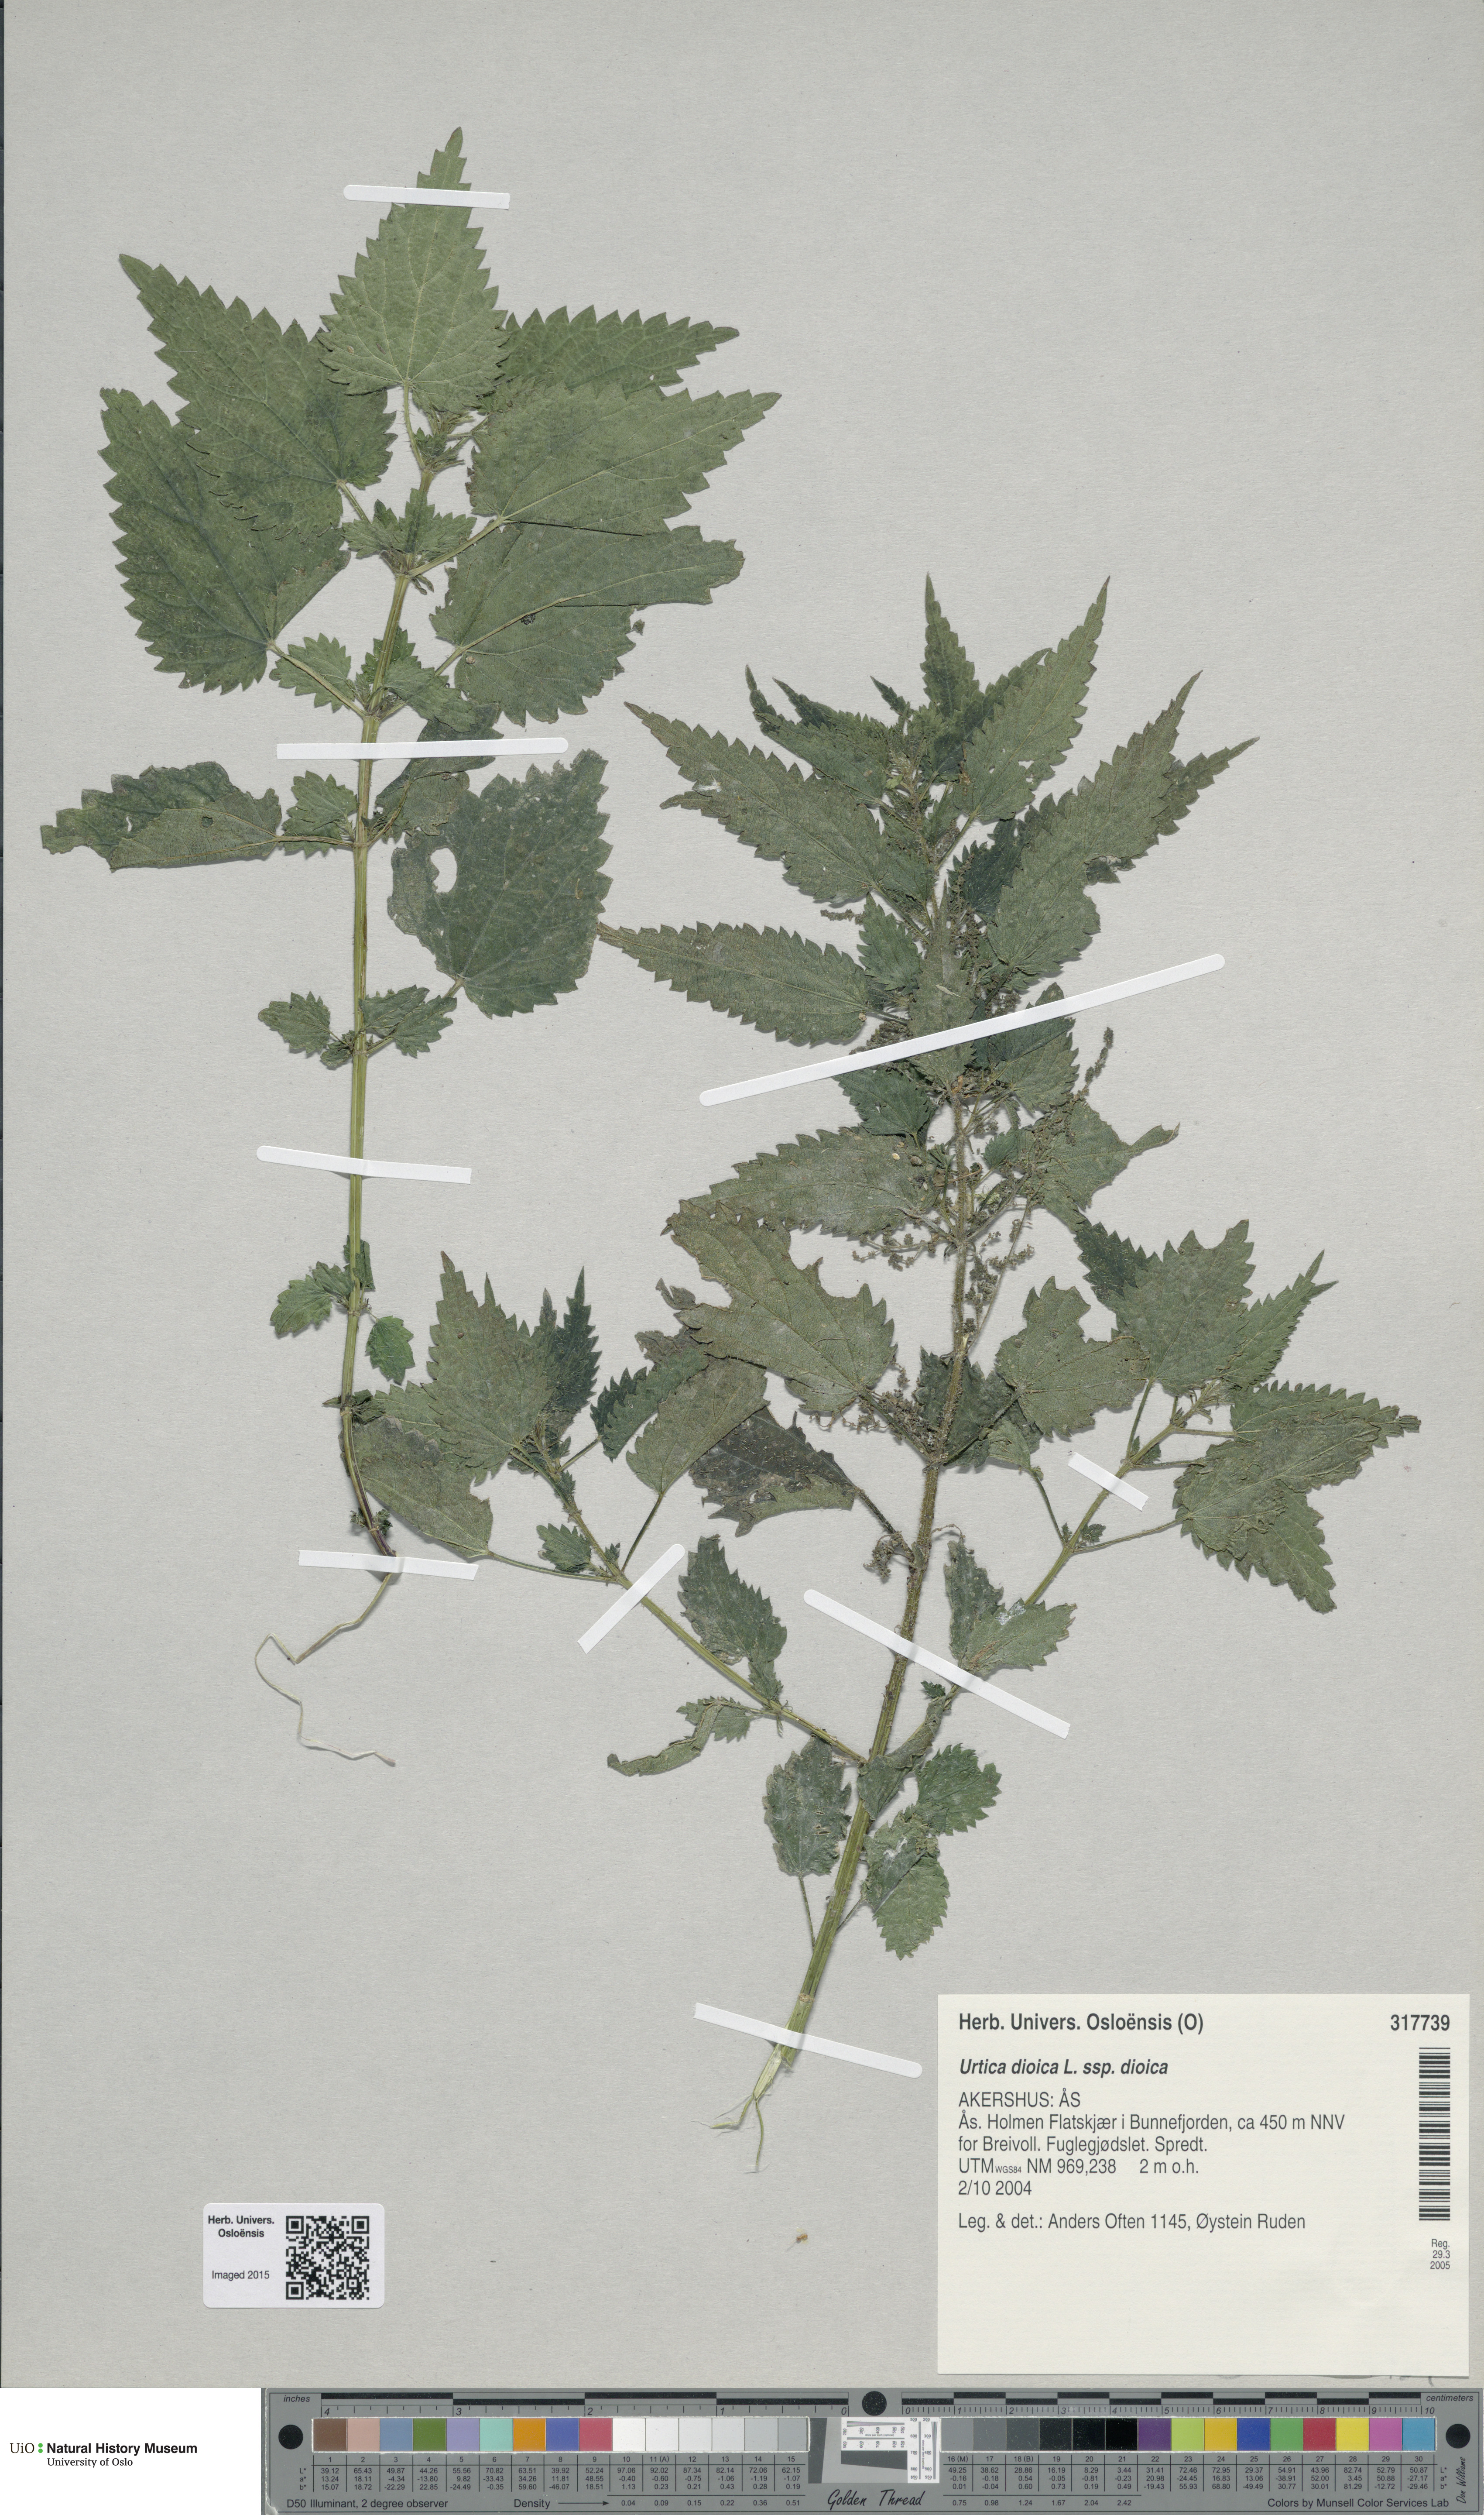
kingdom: Plantae
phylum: Tracheophyta
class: Magnoliopsida
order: Rosales
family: Urticaceae
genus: Urtica
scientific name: Urtica dioica
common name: Common nettle
